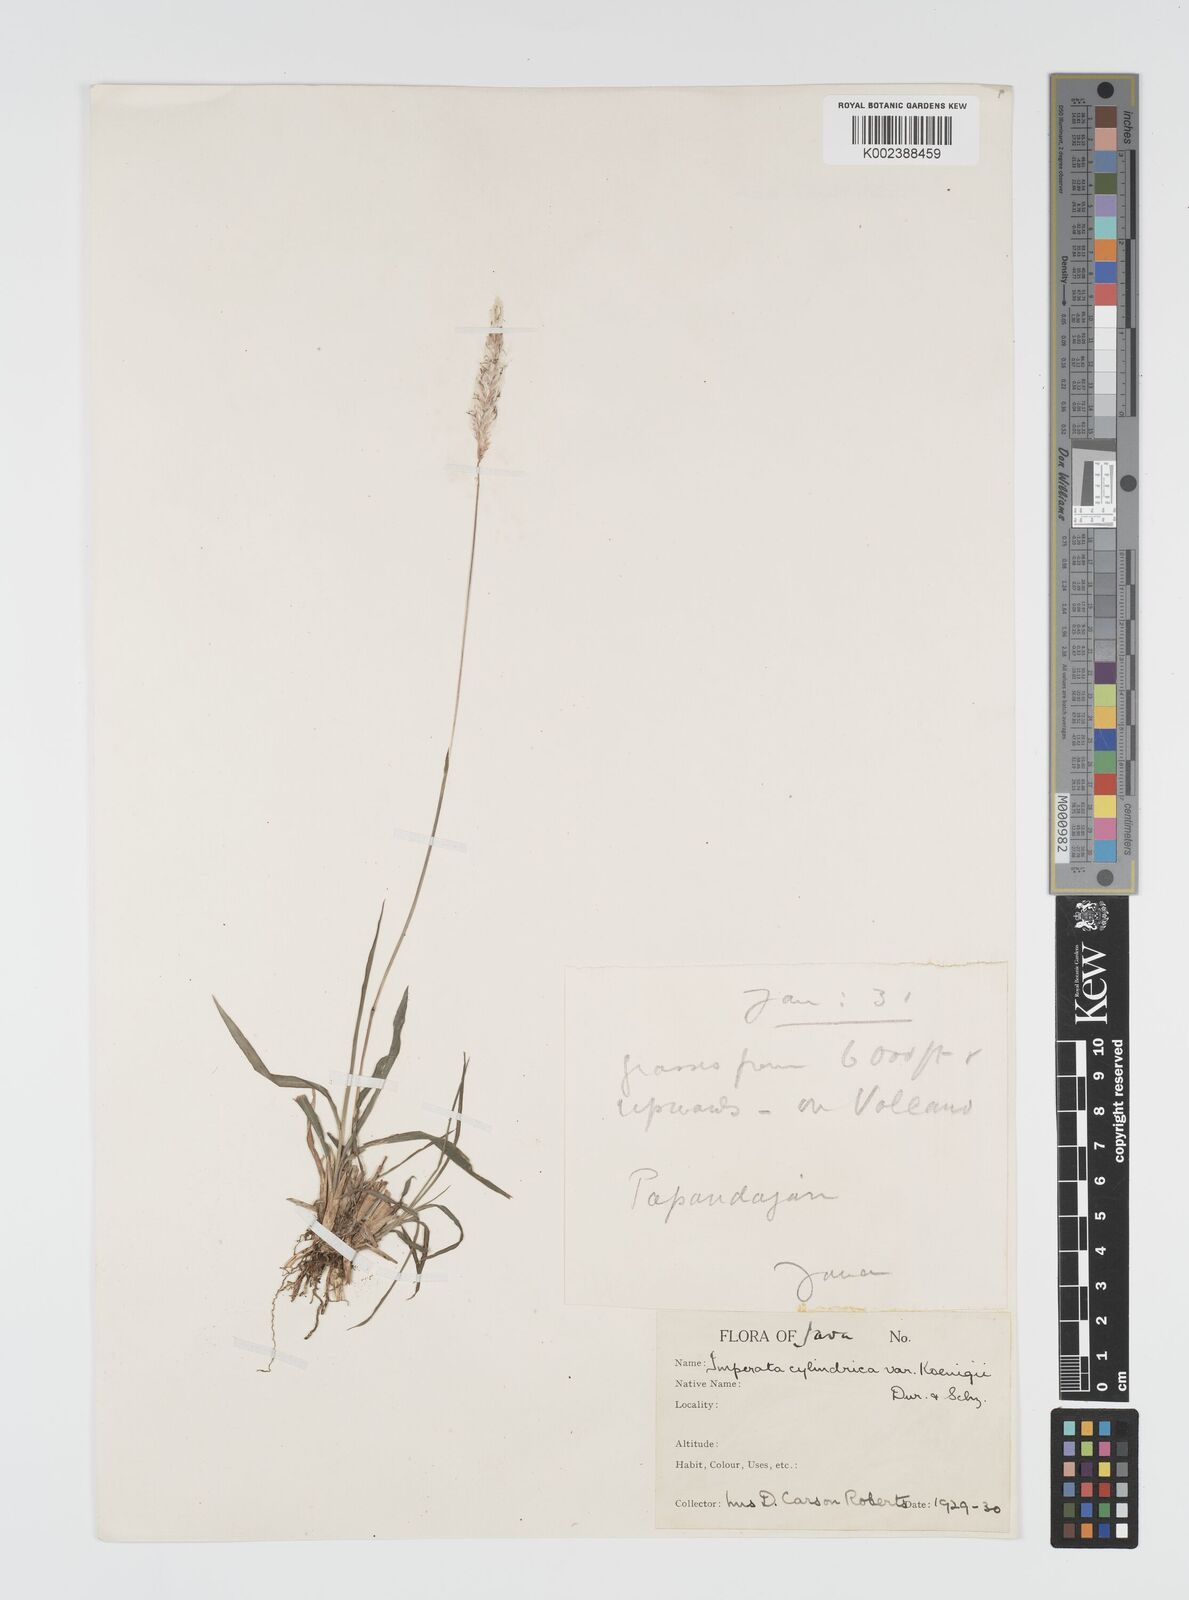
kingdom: Plantae
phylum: Tracheophyta
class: Liliopsida
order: Poales
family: Poaceae
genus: Imperata
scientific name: Imperata
